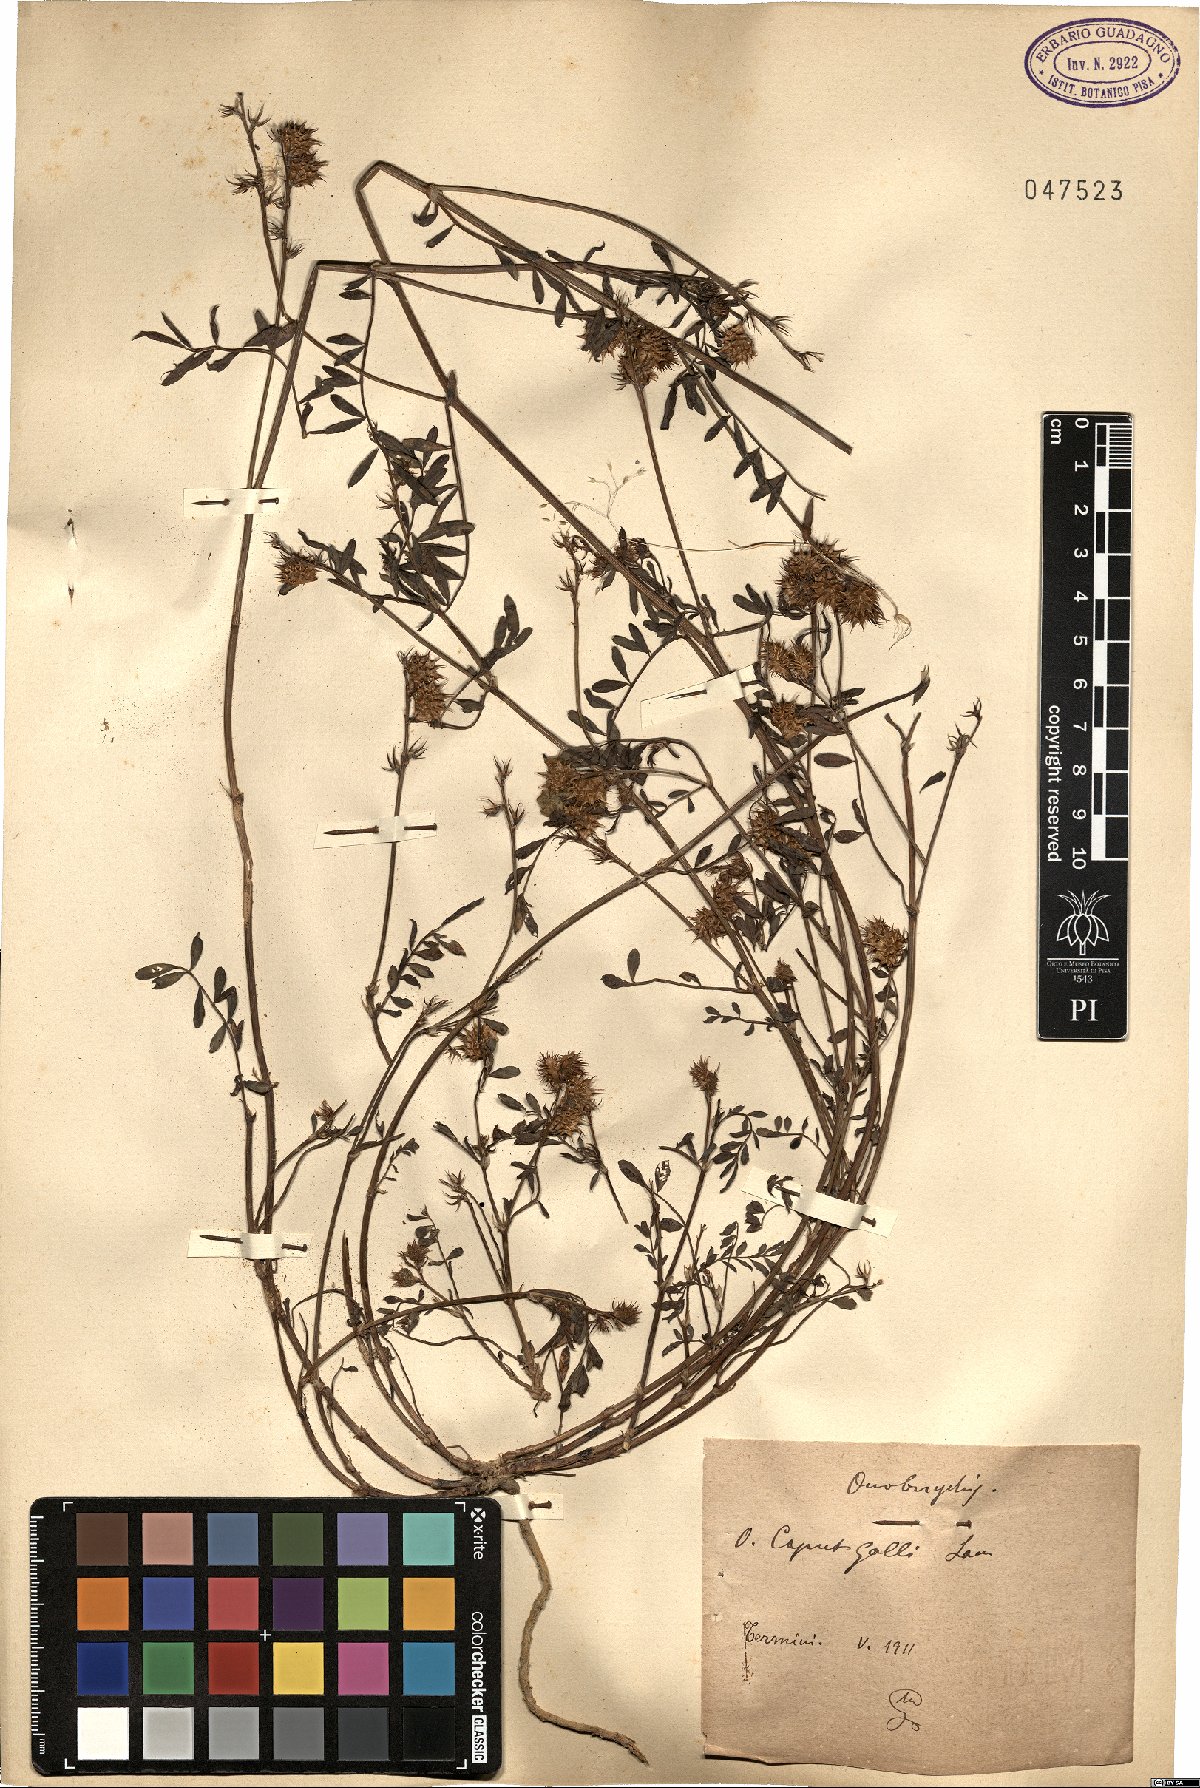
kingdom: Plantae
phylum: Tracheophyta
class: Magnoliopsida
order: Fabales
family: Fabaceae
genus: Onobrychis
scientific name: Onobrychis caput-galli
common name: Cockscomb sainfoin
